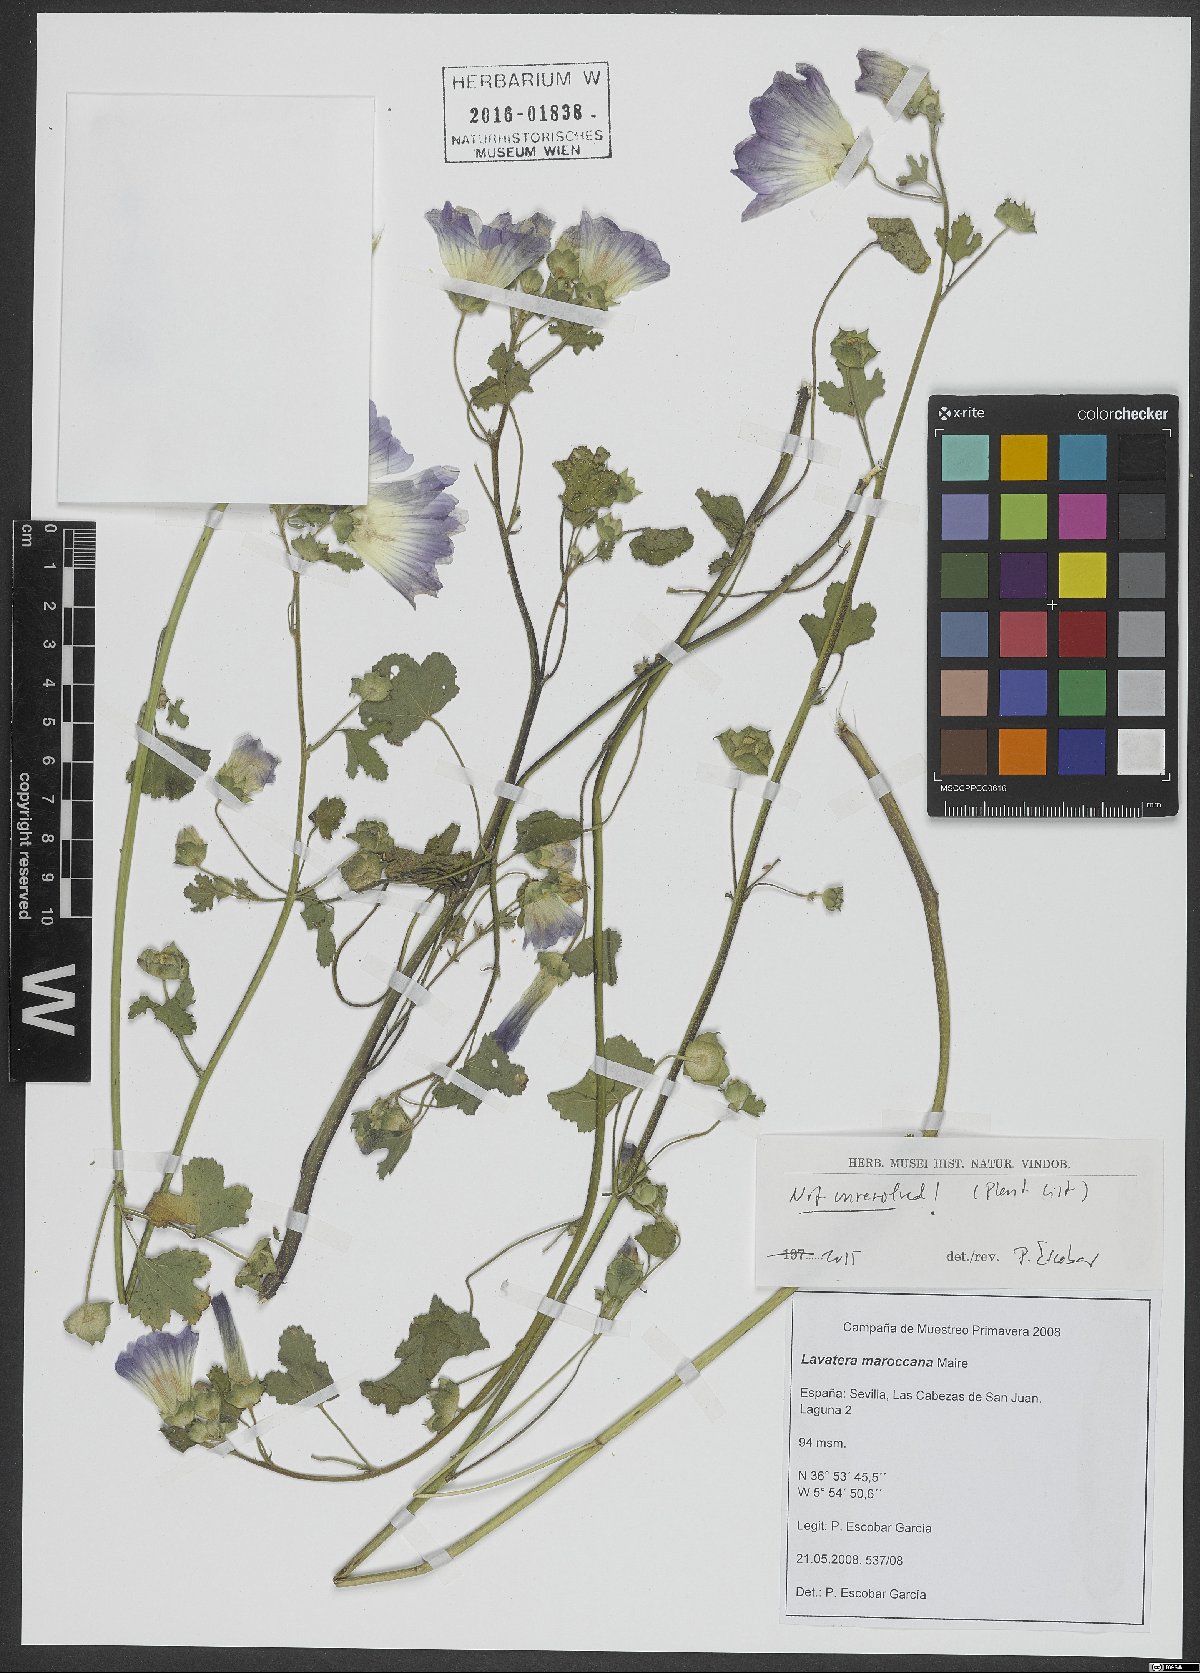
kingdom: Plantae
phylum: Tracheophyta
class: Magnoliopsida
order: Malvales
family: Malvaceae
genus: Malva
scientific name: Malva maroccana
